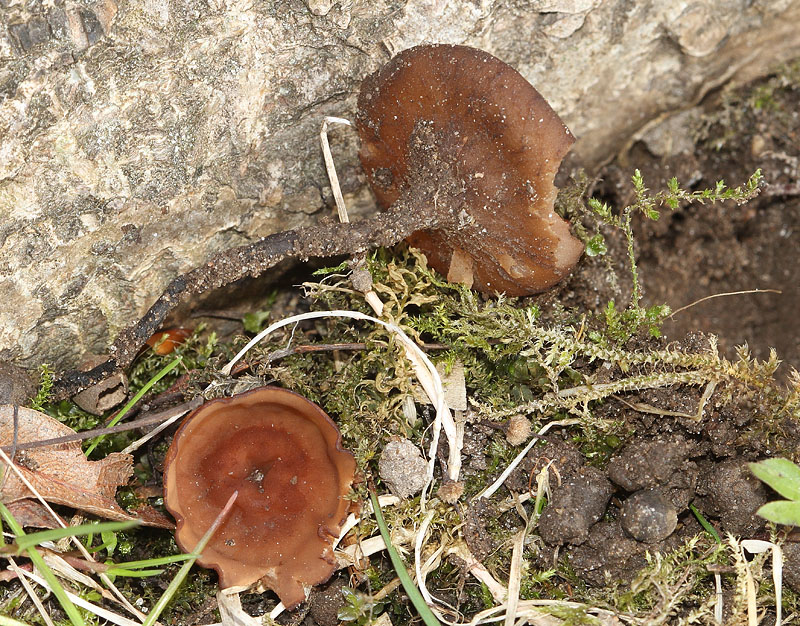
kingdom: Fungi
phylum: Ascomycota
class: Leotiomycetes
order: Helotiales
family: Sclerotiniaceae
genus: Dumontinia
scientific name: Dumontinia tuberosa
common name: anemone-knoldskive
